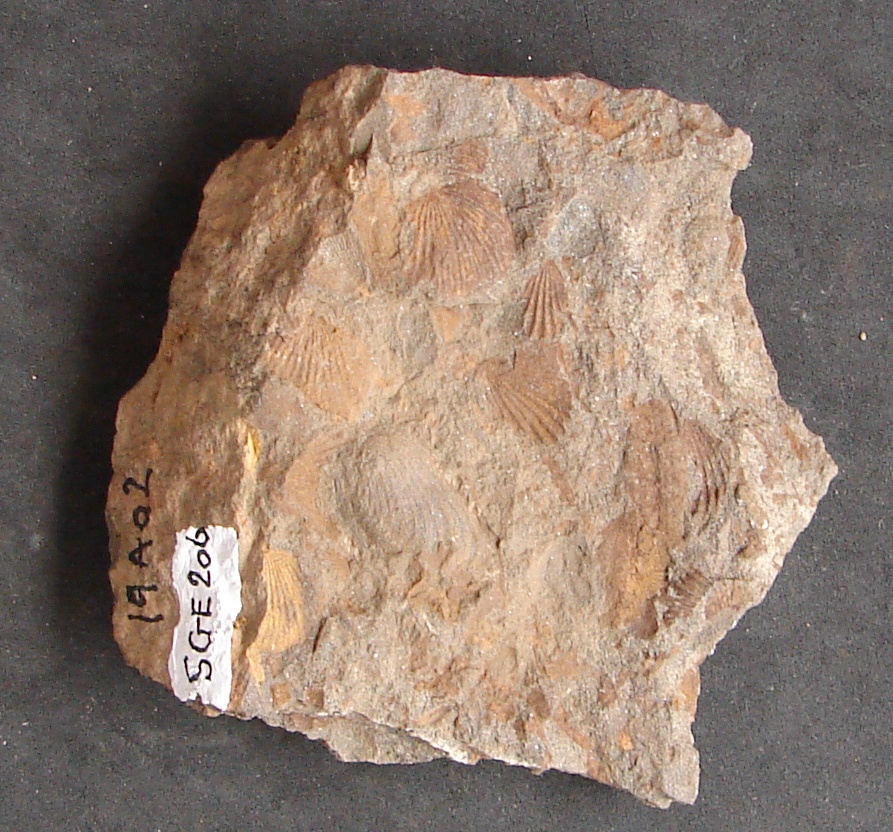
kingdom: Animalia
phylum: Mollusca
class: Bivalvia
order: Carditida
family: Cardiniidae
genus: Cypricardinia
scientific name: Cypricardinia
